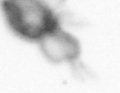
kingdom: Animalia
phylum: Arthropoda
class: Copepoda
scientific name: Copepoda
